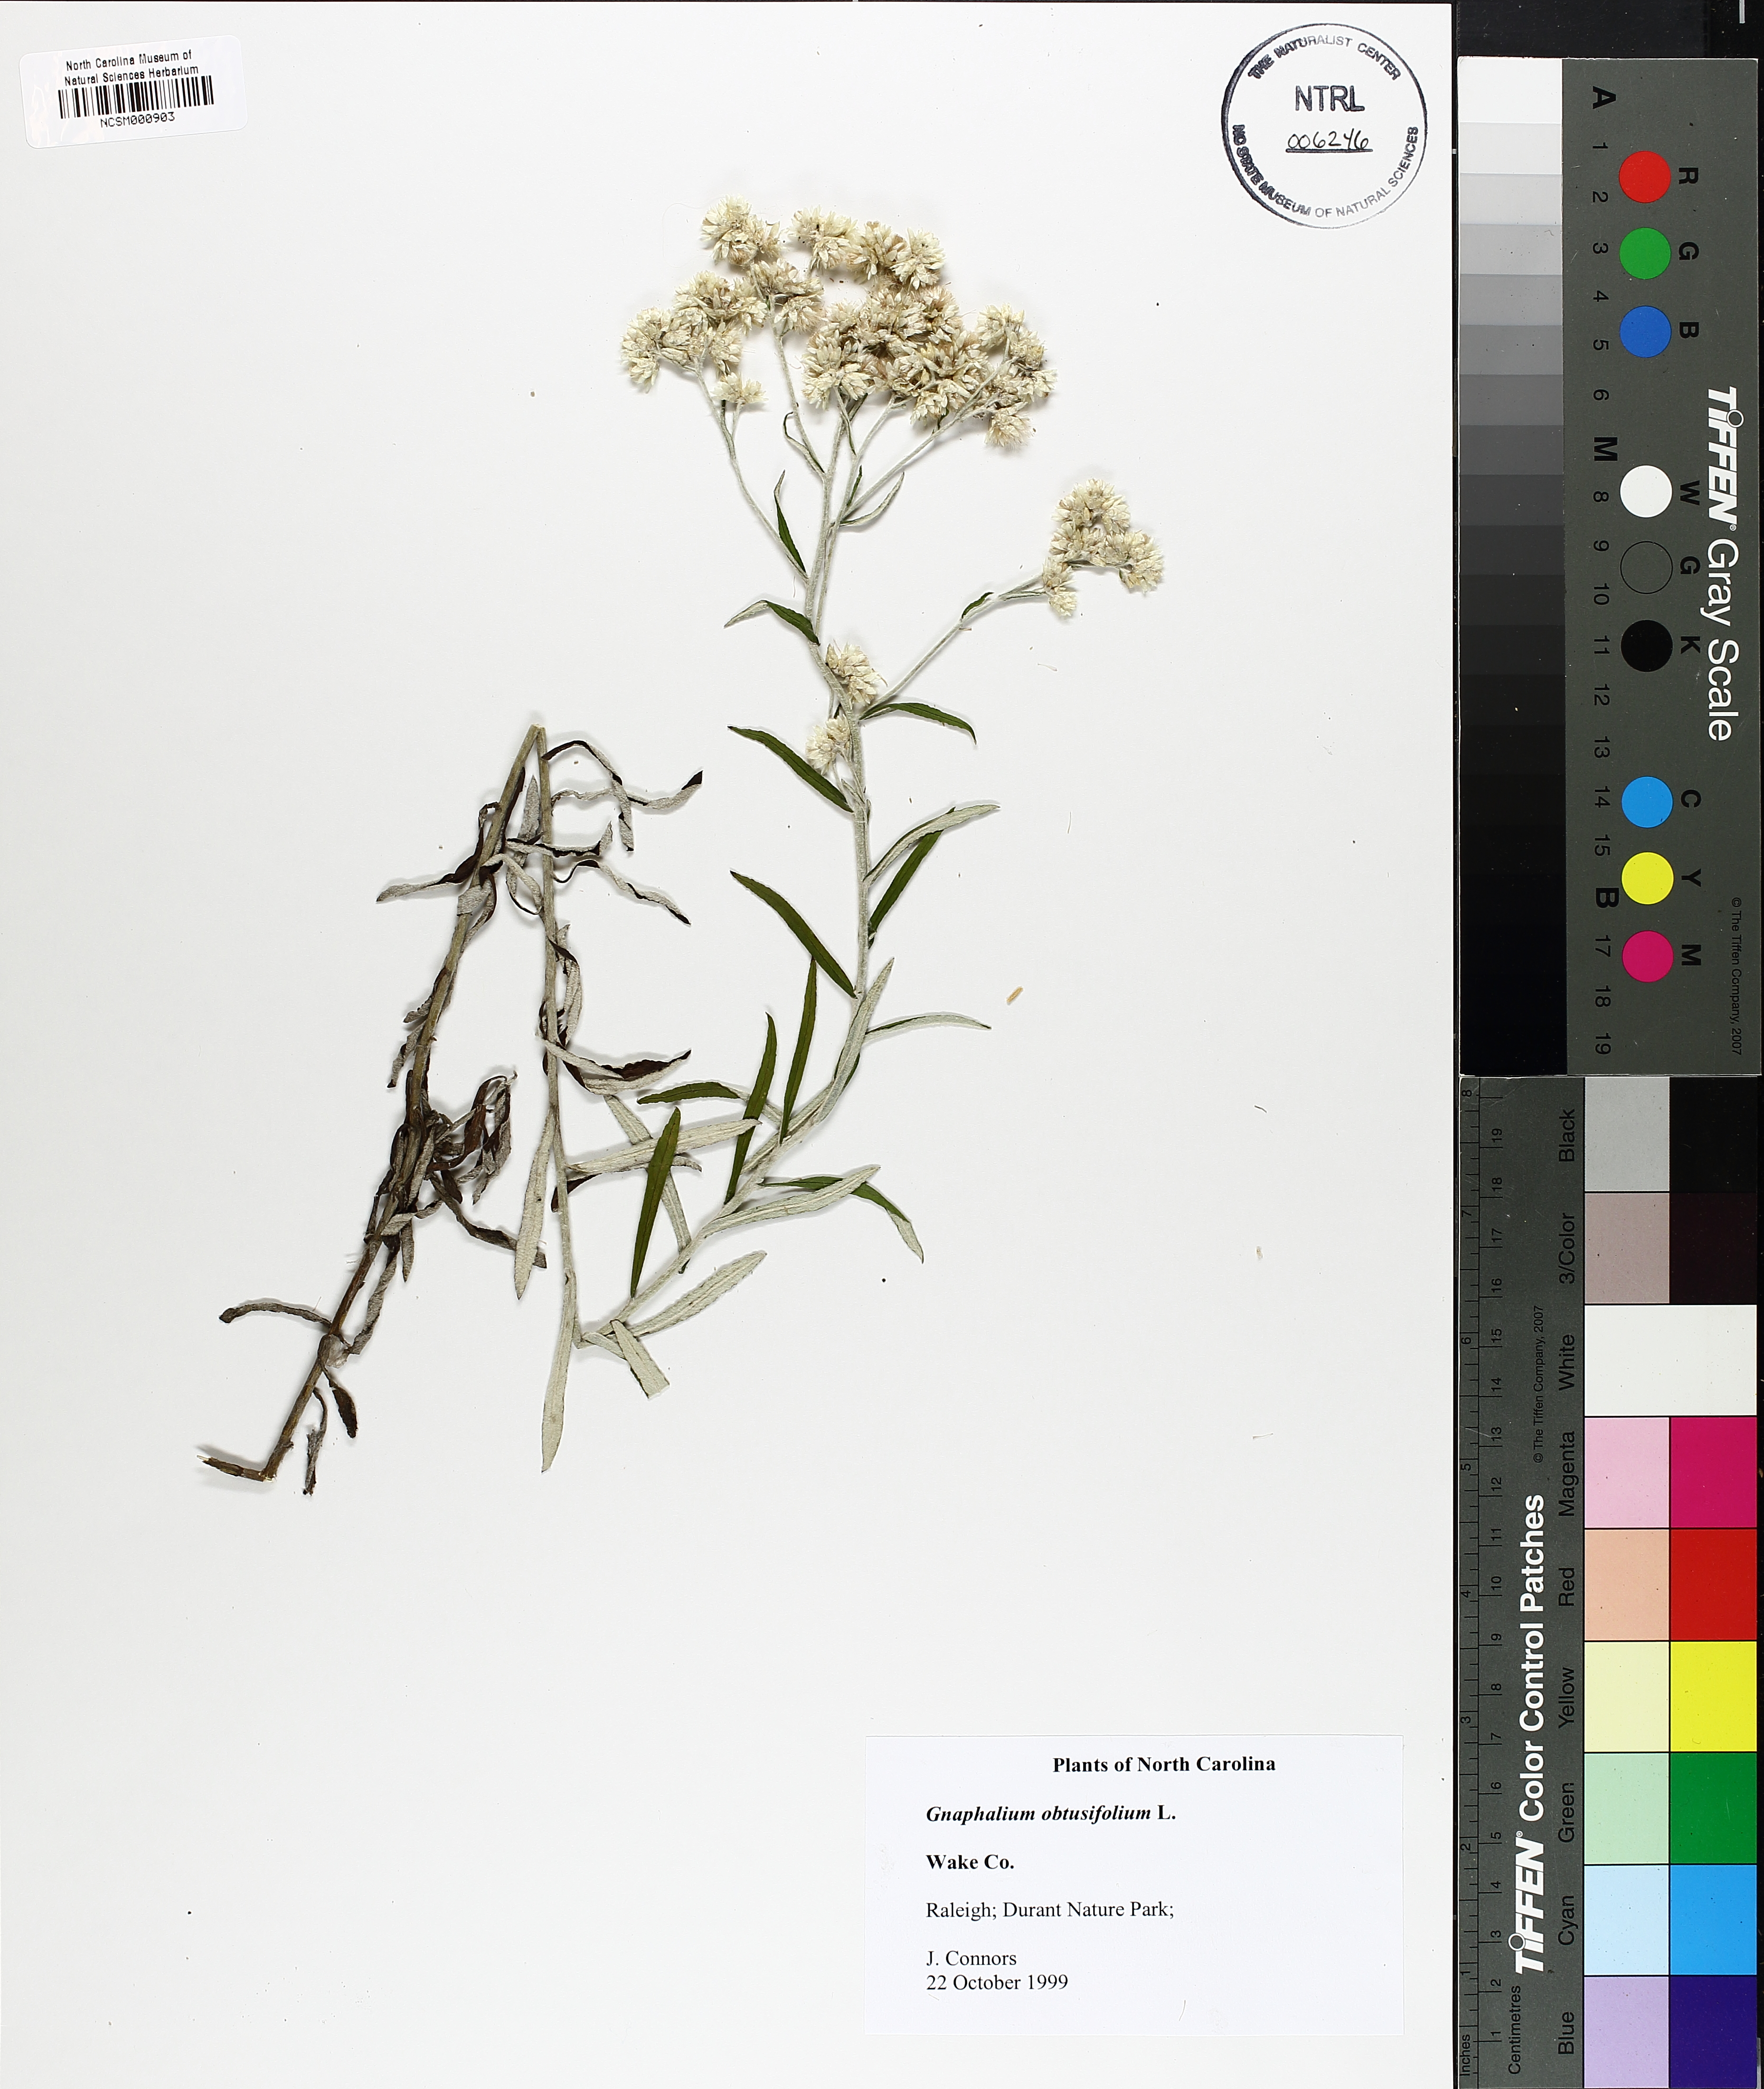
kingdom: Plantae
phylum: Tracheophyta
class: Magnoliopsida
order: Asterales
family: Asteraceae
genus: Pseudognaphalium
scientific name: Pseudognaphalium obtusifolium
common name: Eastern rabbit-tobacco
